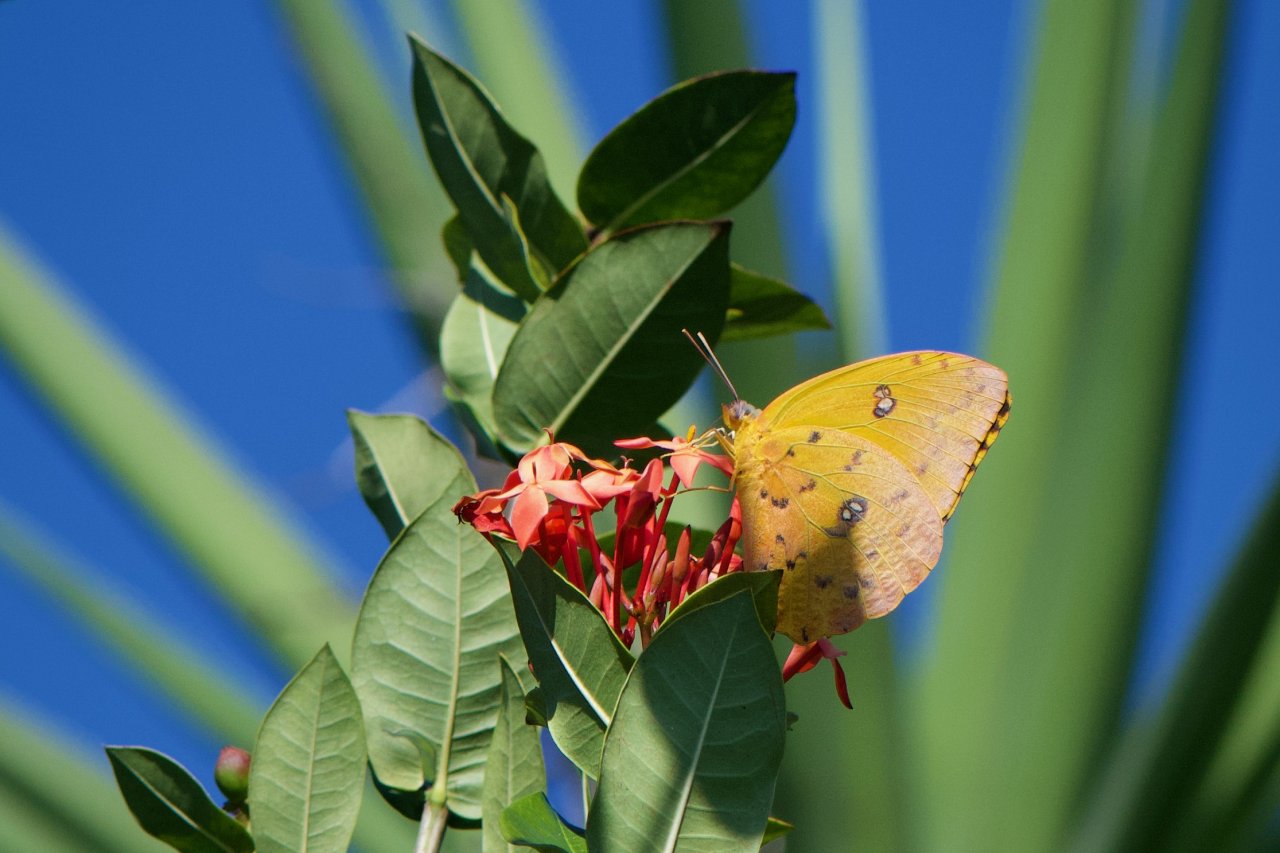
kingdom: Animalia
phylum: Arthropoda
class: Insecta
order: Lepidoptera
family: Pieridae
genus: Phoebis
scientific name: Phoebis philea
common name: Orange-barred Sulphur
